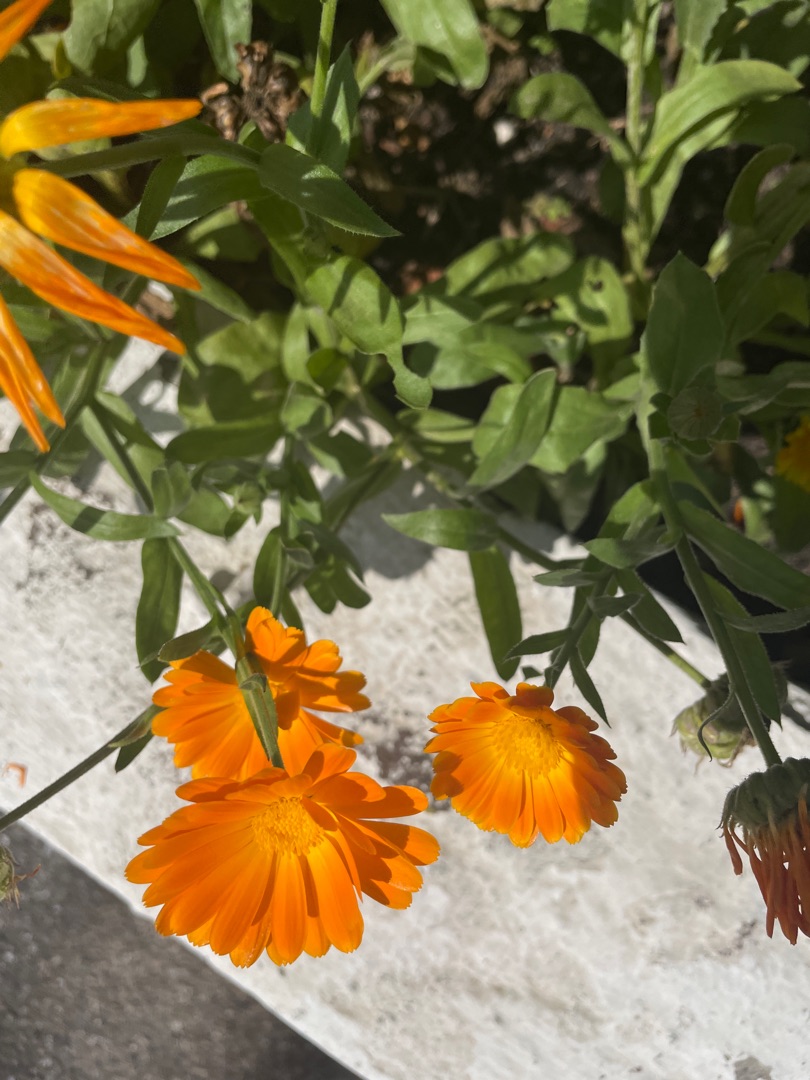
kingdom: Plantae
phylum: Tracheophyta
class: Magnoliopsida
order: Asterales
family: Asteraceae
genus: Calendula
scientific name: Calendula officinalis
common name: Have-morgenfrue
